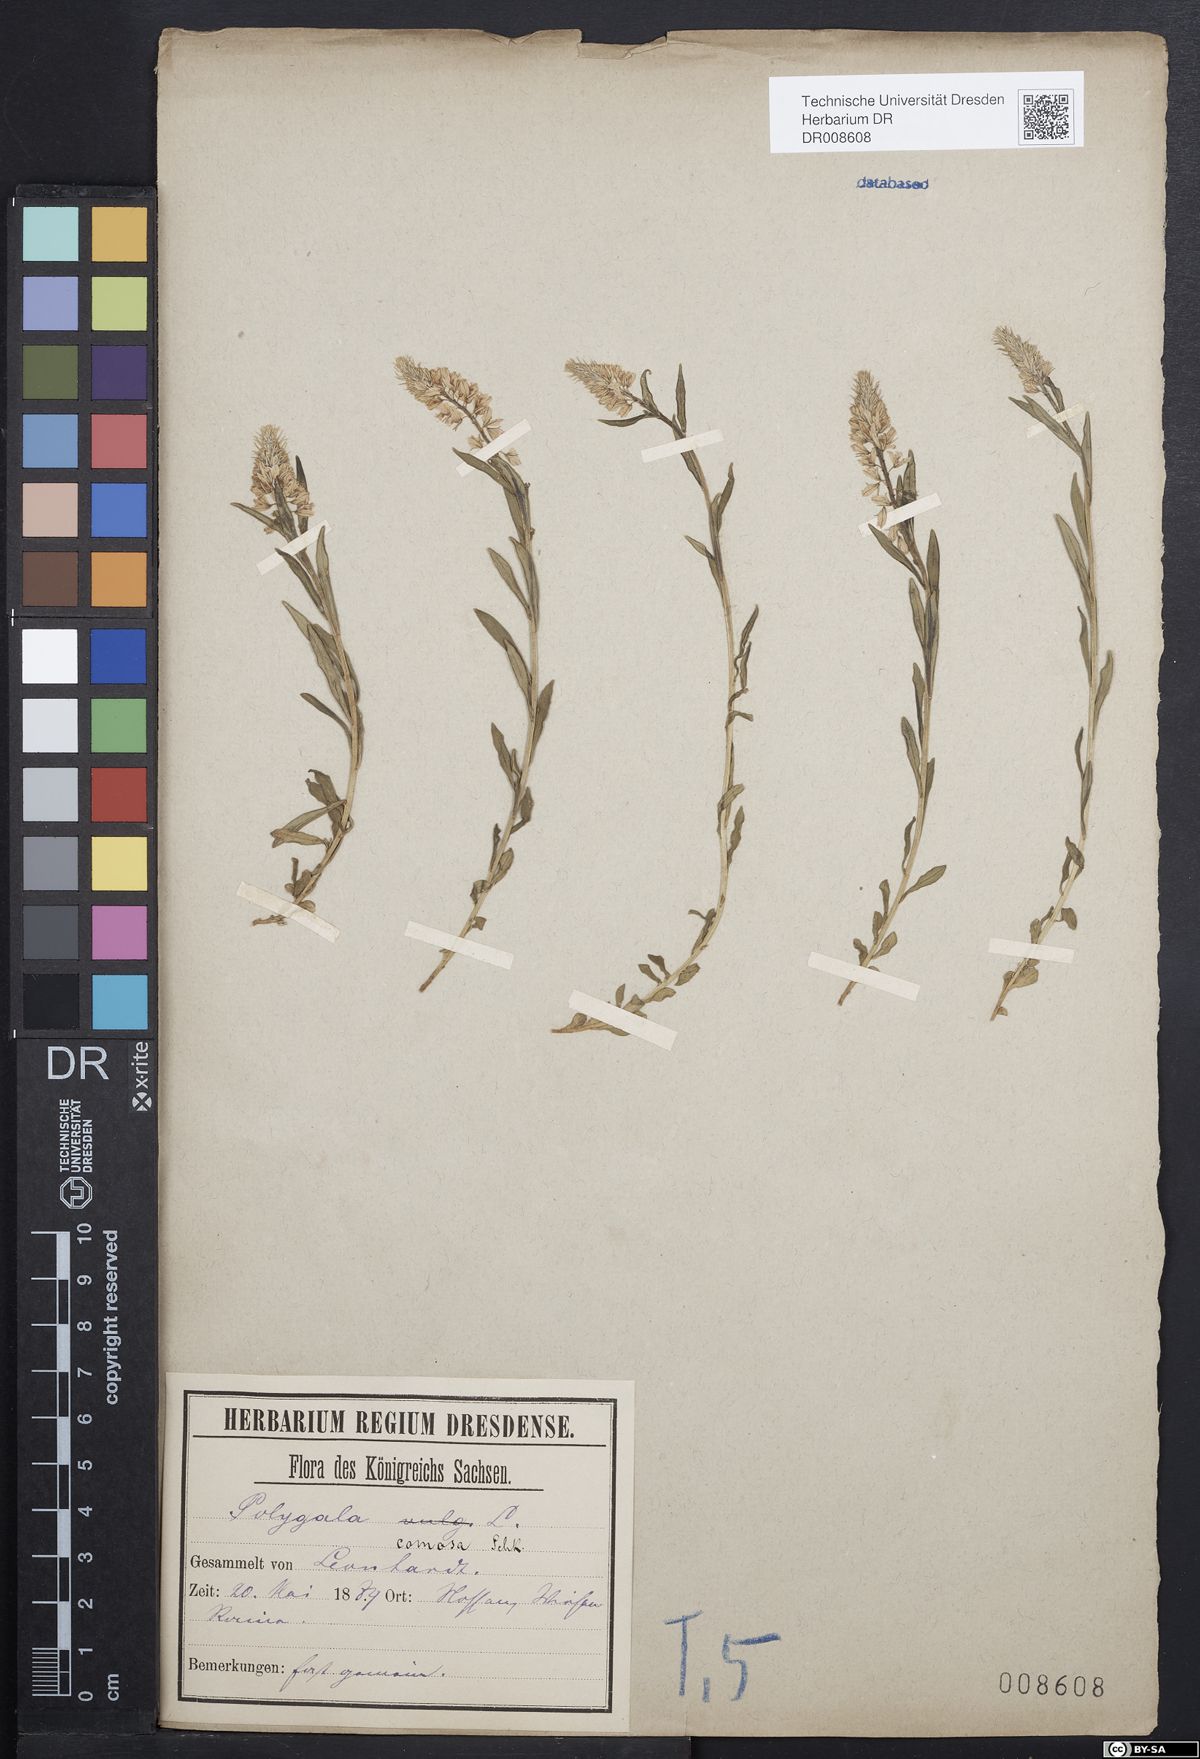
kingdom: Plantae
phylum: Tracheophyta
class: Magnoliopsida
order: Fabales
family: Polygalaceae
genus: Polygala
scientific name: Polygala comosa
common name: Tufted milkwort
